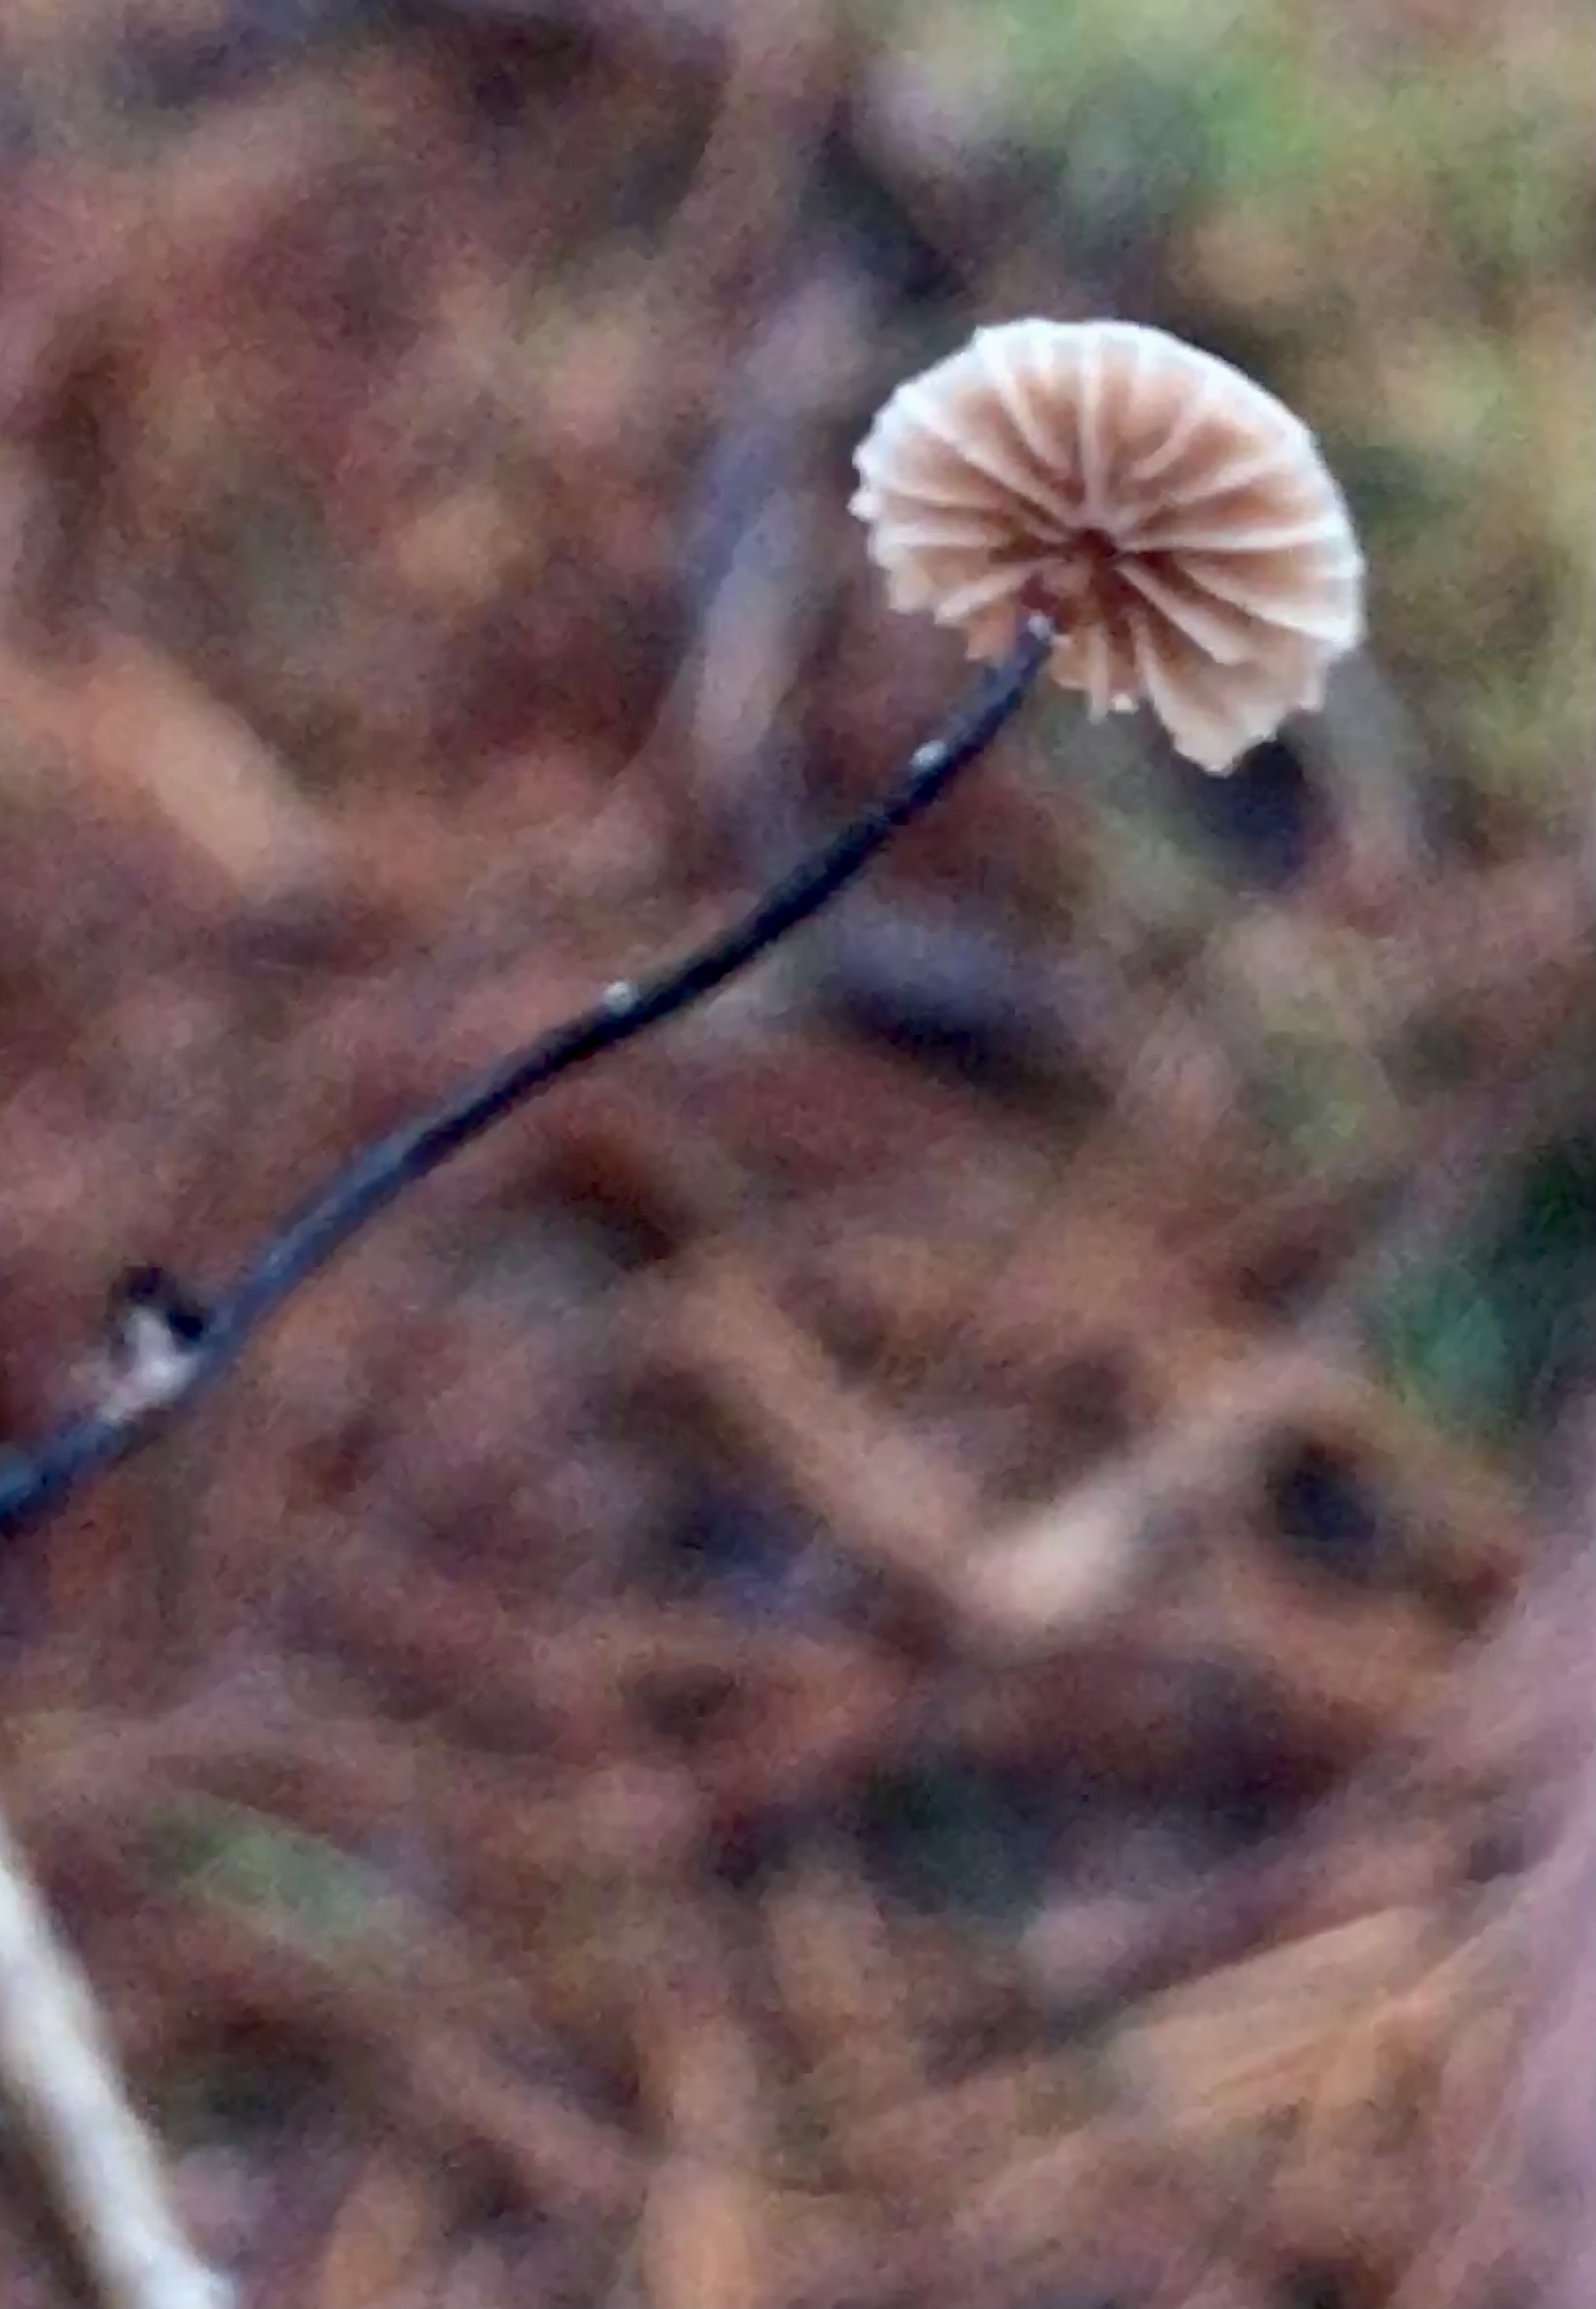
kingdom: Fungi
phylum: Basidiomycota
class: Agaricomycetes
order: Agaricales
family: Omphalotaceae
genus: Gymnopus
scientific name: Gymnopus androsaceus
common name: trådstokket fladhat
